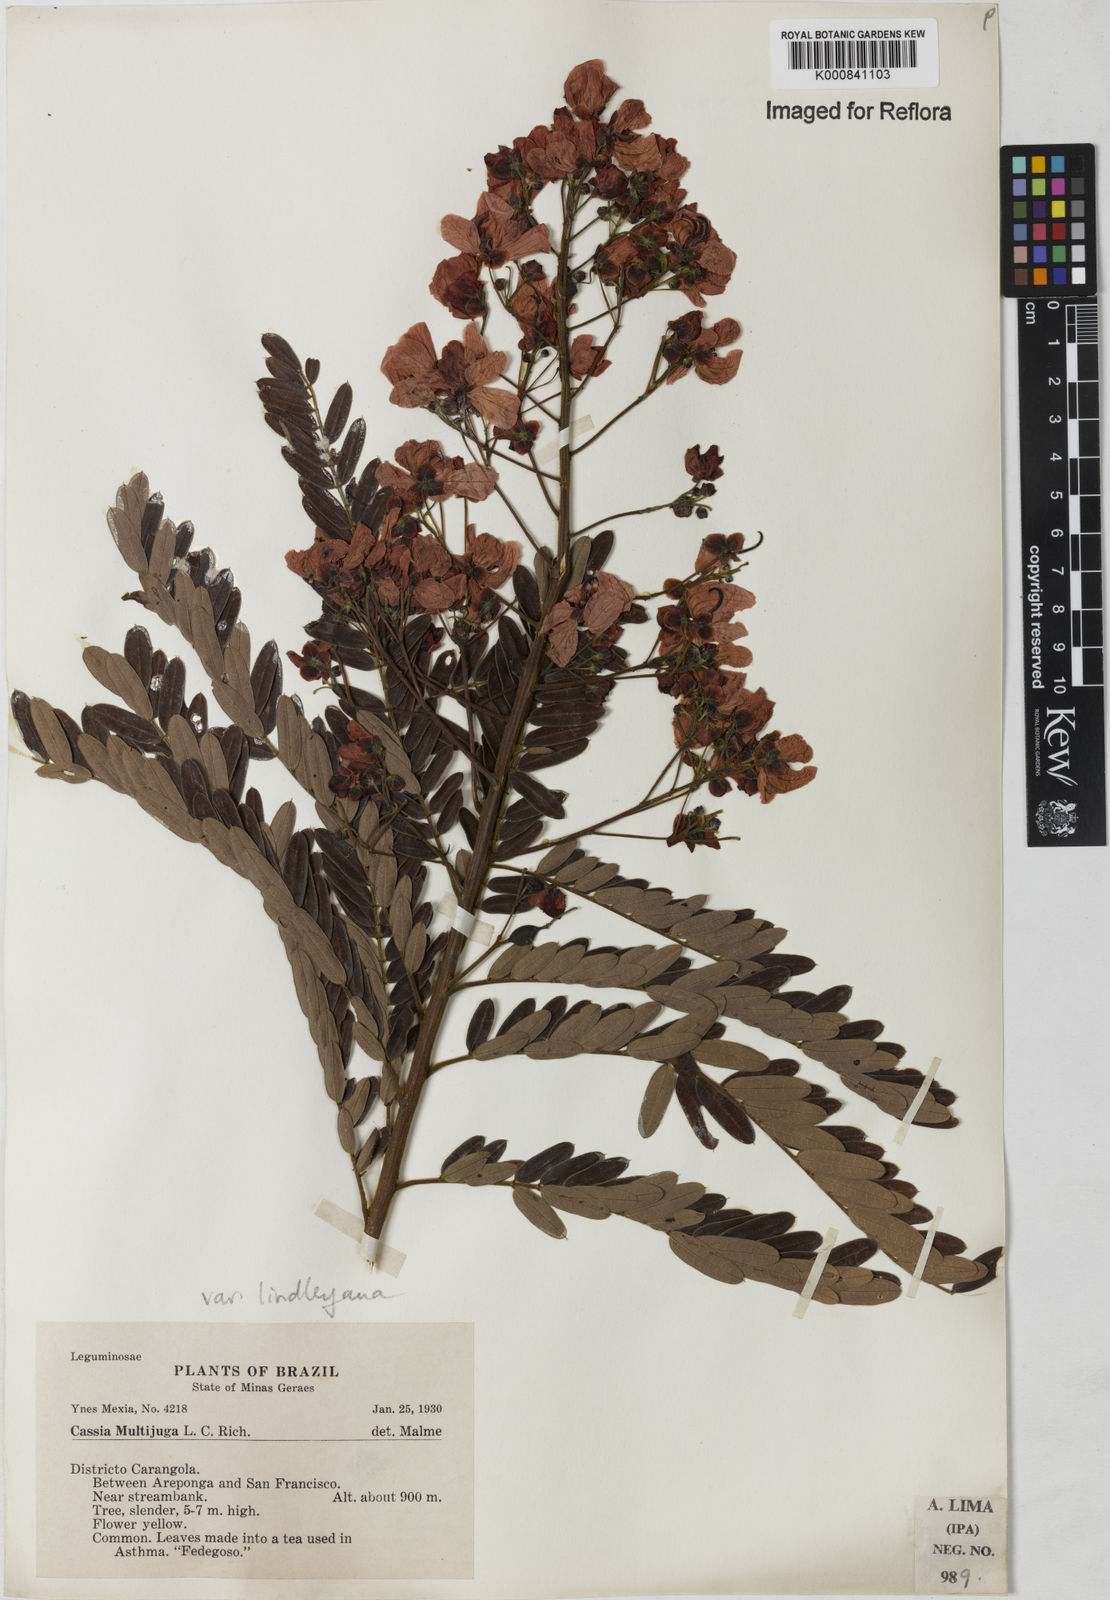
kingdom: Plantae
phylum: Tracheophyta
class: Magnoliopsida
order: Fabales
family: Fabaceae
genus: Senna
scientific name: Senna multijuga
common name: False sicklepod
